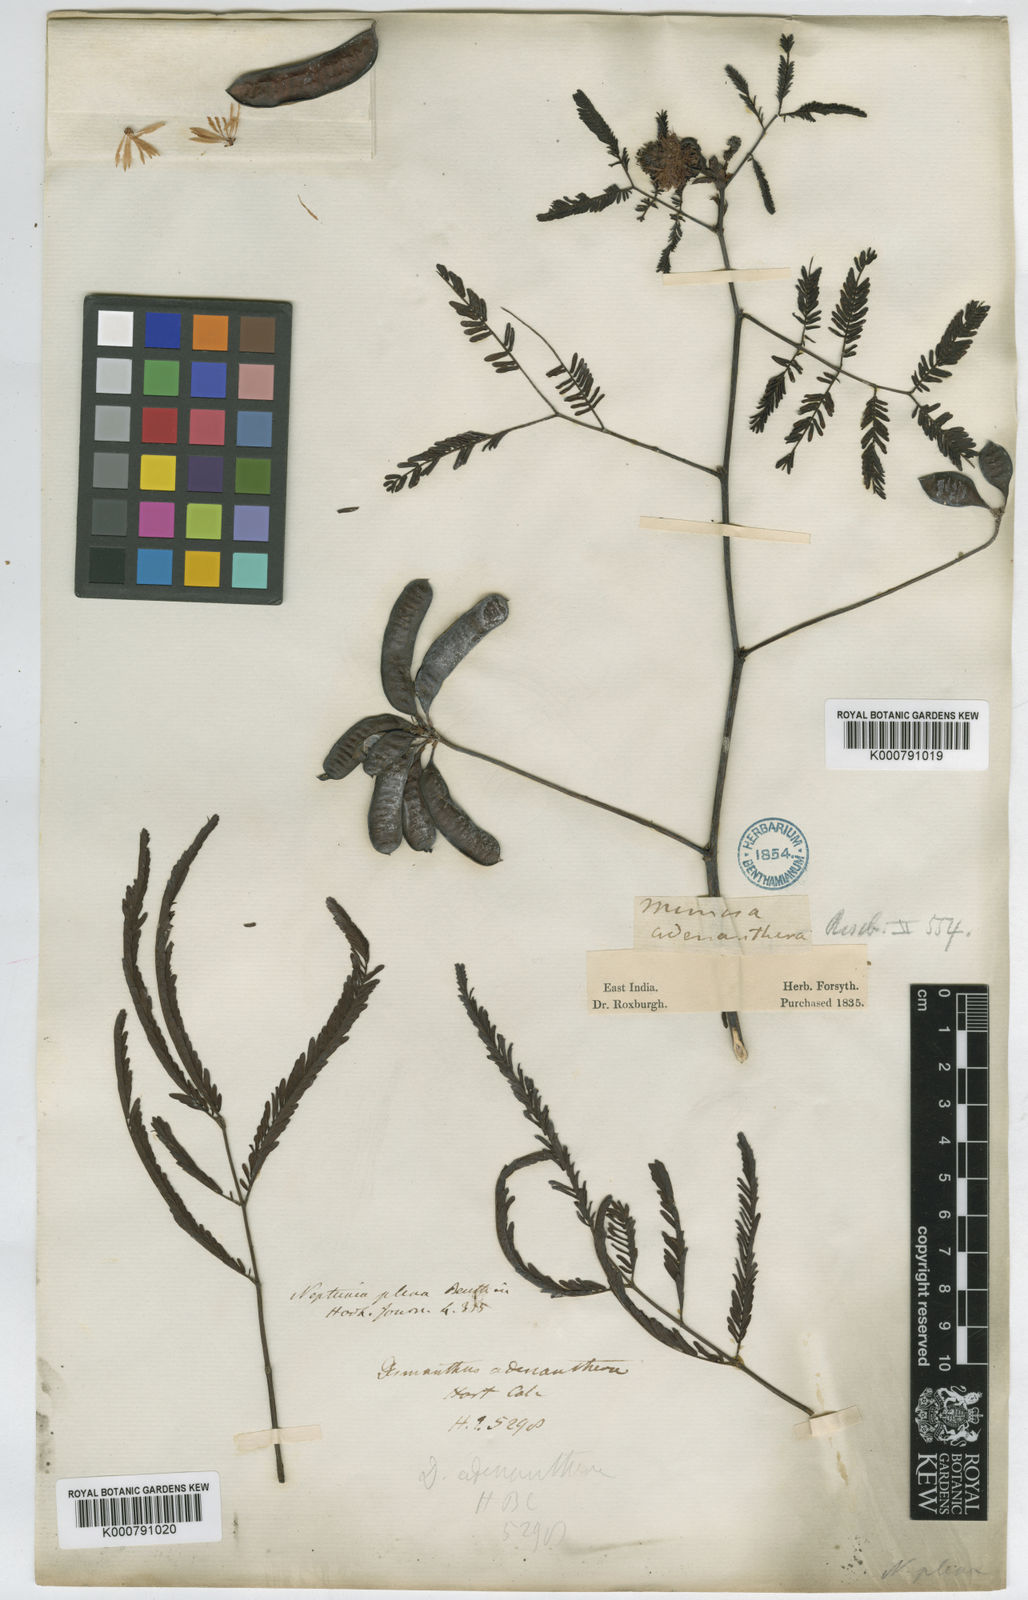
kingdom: Plantae
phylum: Tracheophyta
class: Magnoliopsida
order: Fabales
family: Fabaceae
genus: Neptunia
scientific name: Neptunia plena
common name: Dead and awake
